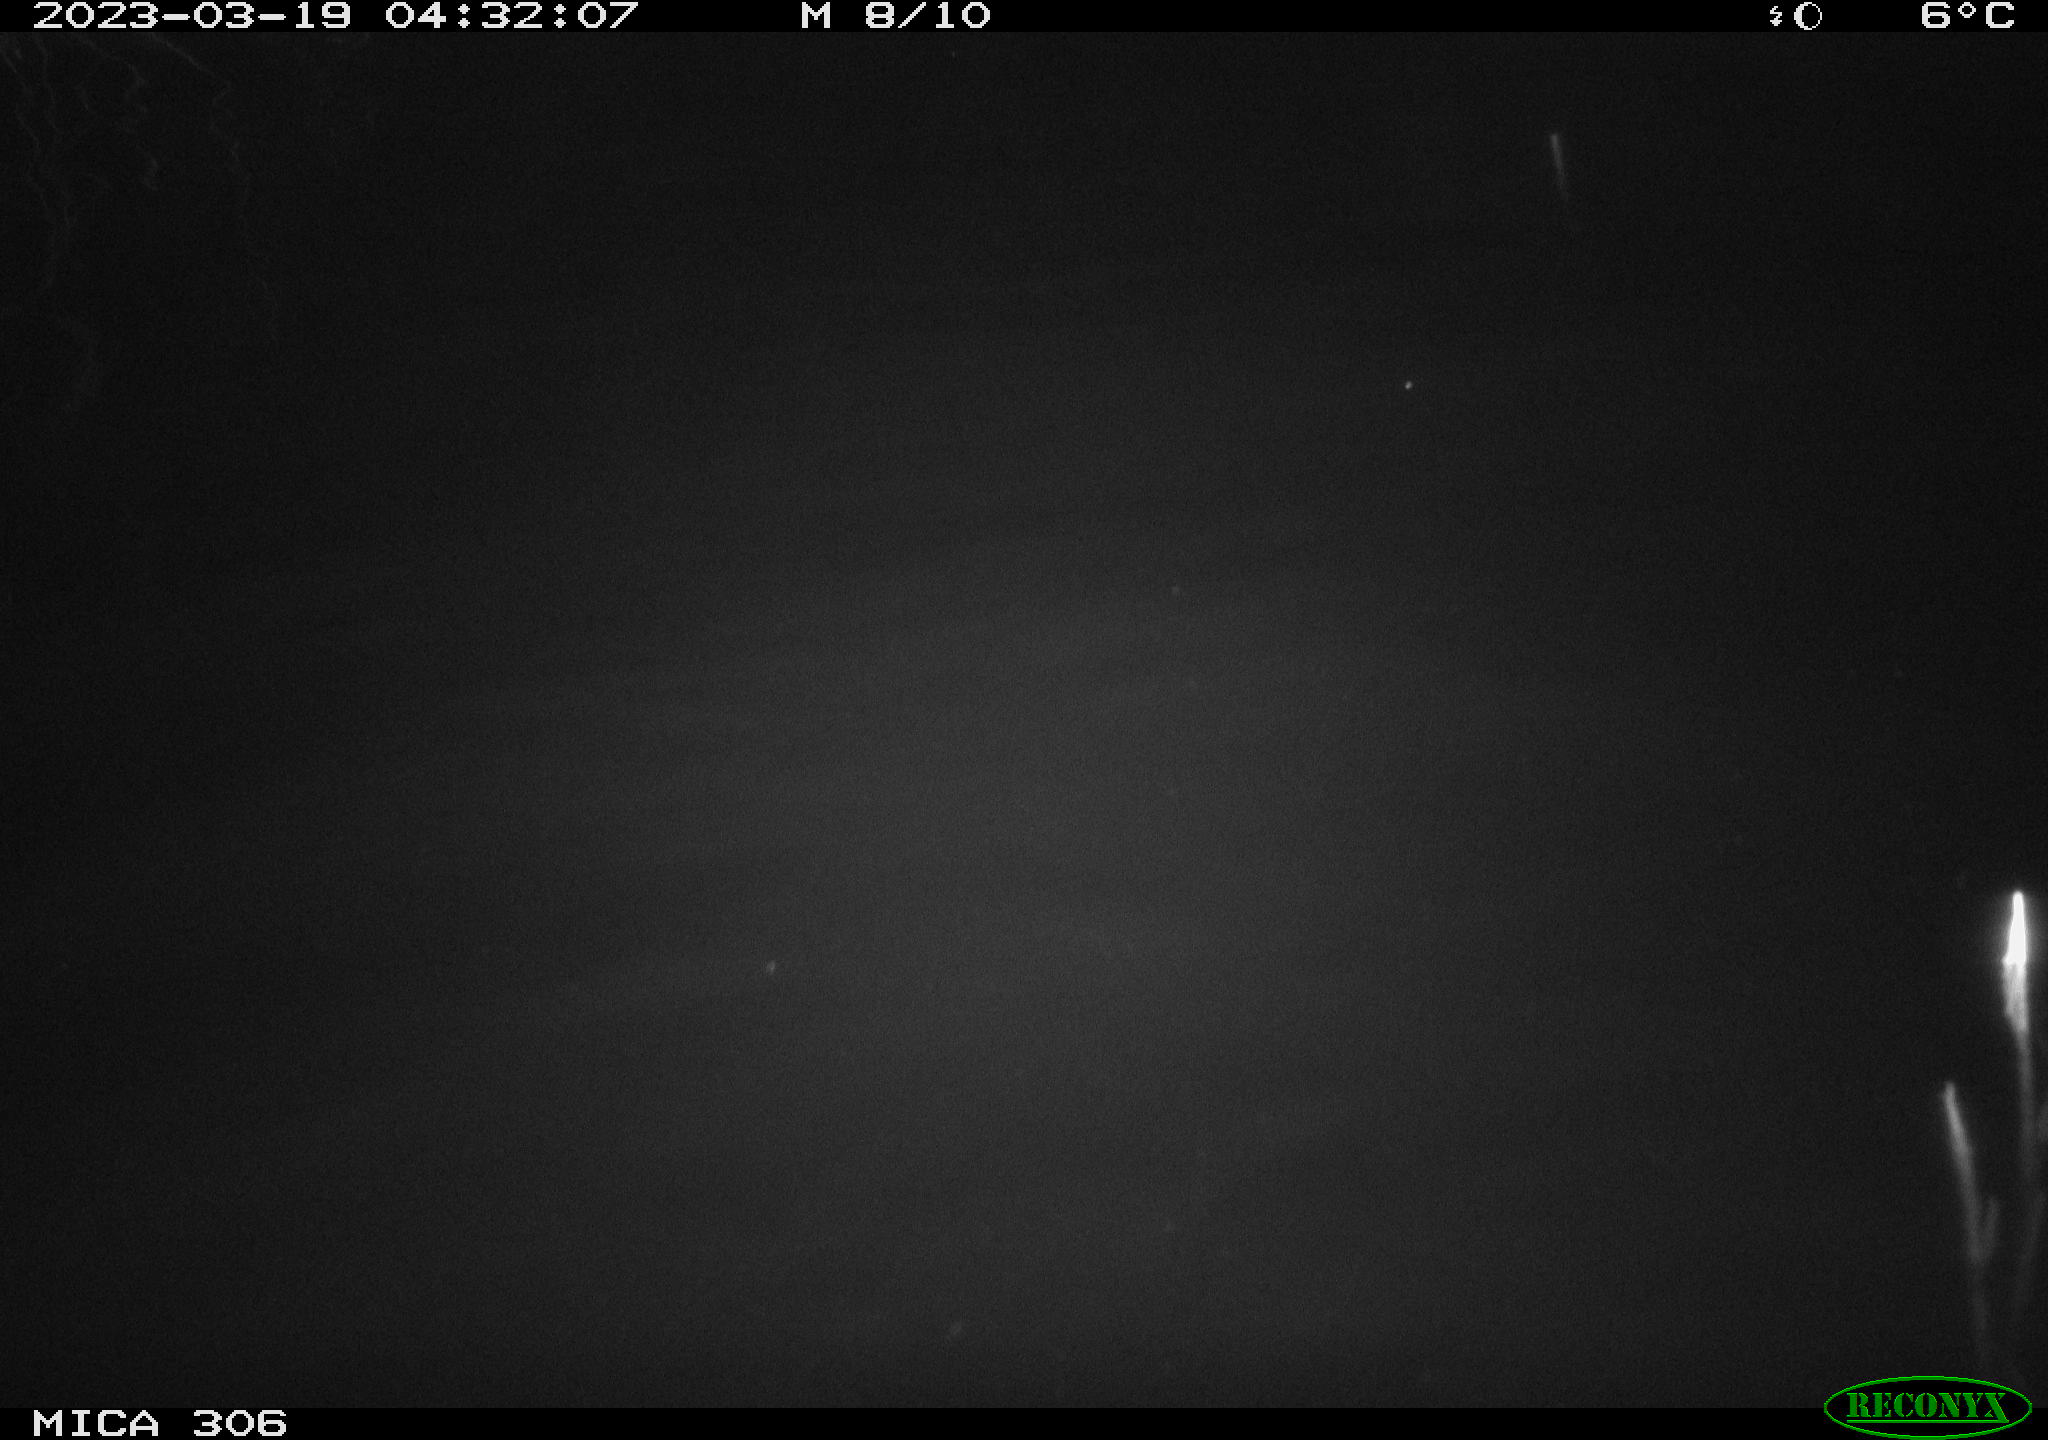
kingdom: Animalia
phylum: Chordata
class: Mammalia
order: Rodentia
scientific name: Rodentia
